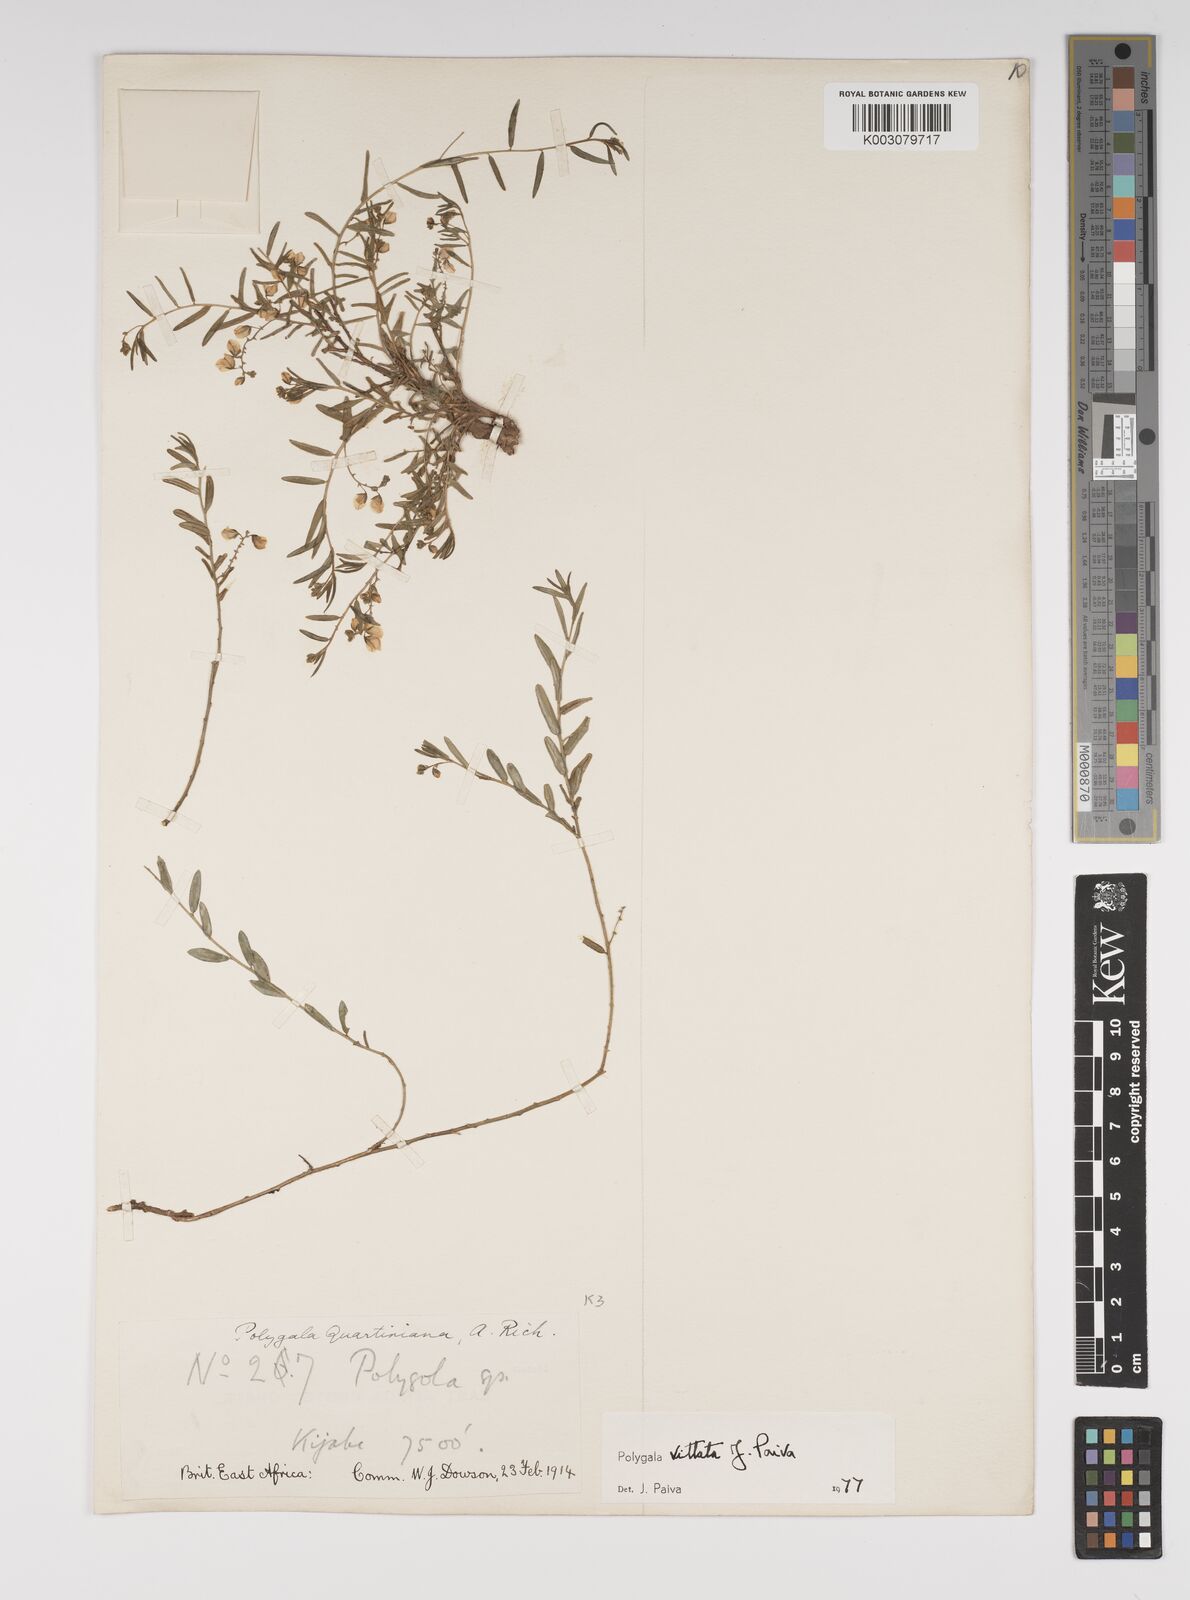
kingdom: Plantae
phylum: Tracheophyta
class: Magnoliopsida
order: Fabales
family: Polygalaceae
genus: Polygala
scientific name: Polygala vittata
